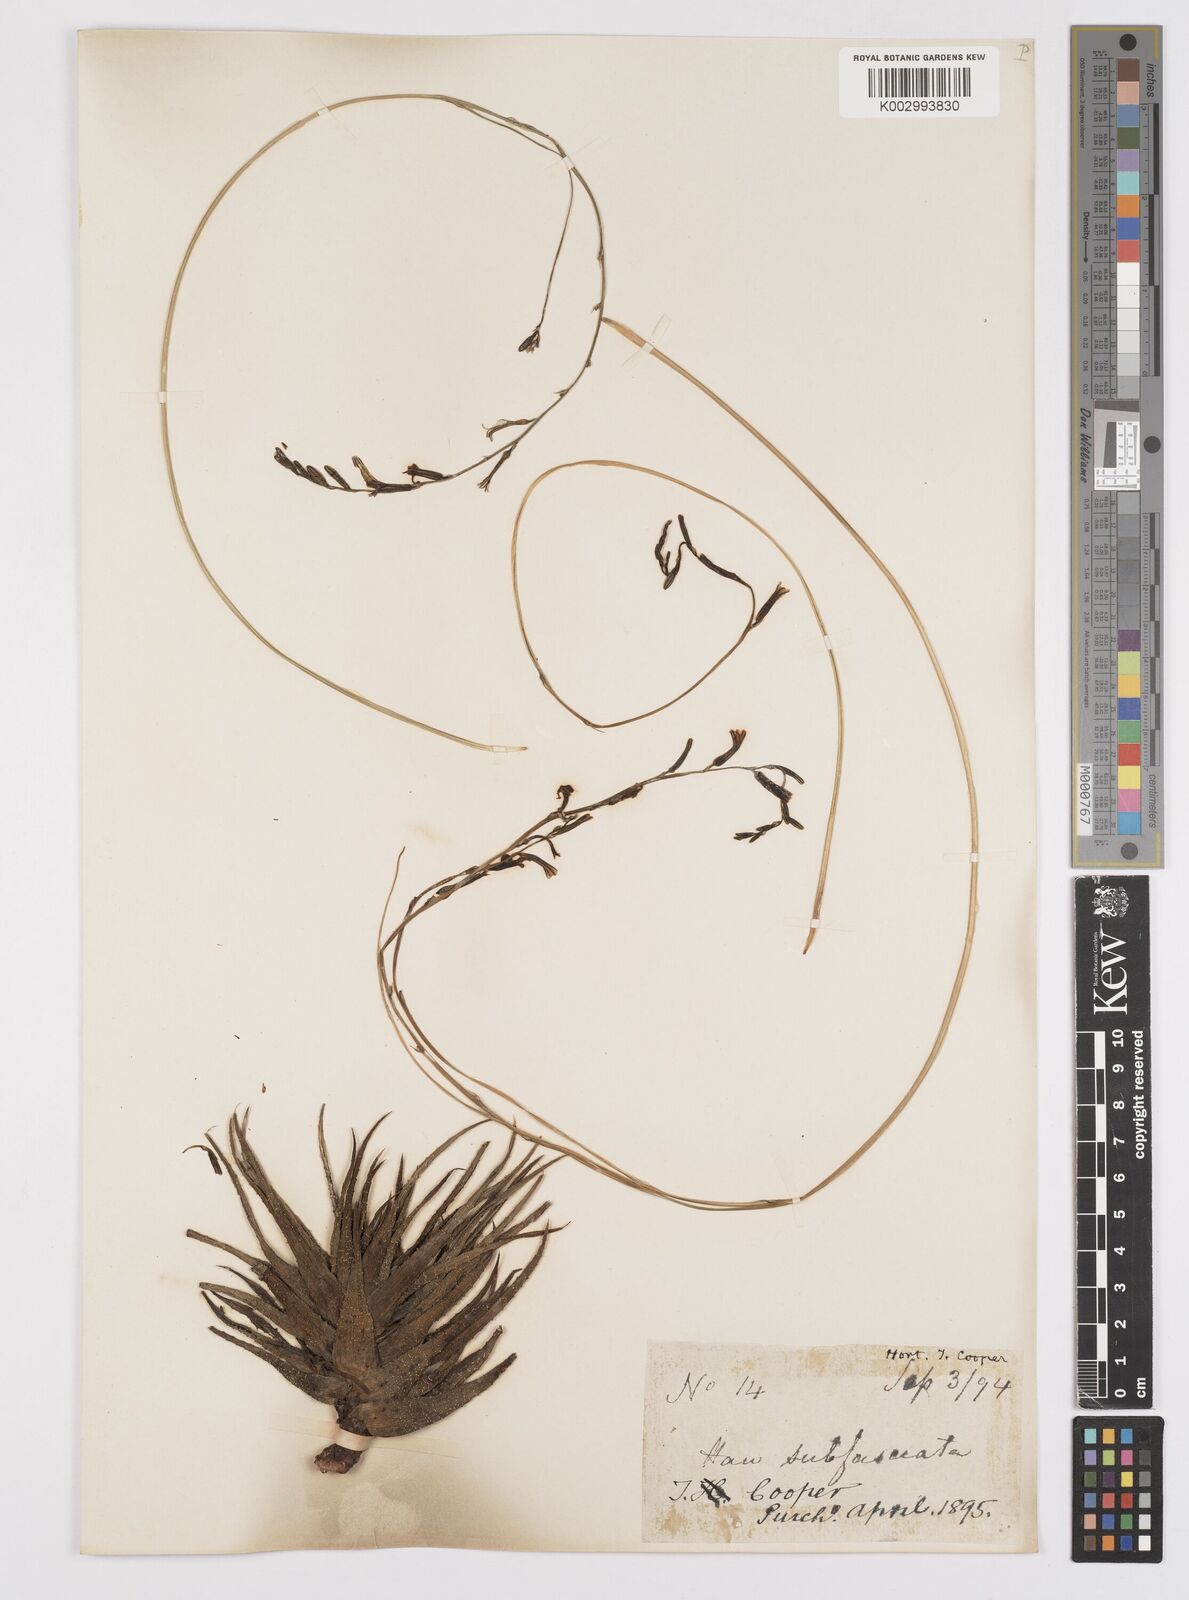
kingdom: Plantae
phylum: Tracheophyta
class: Liliopsida
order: Asparagales
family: Asphodelaceae
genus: Haworthiopsis
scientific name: Haworthiopsis attenuata
